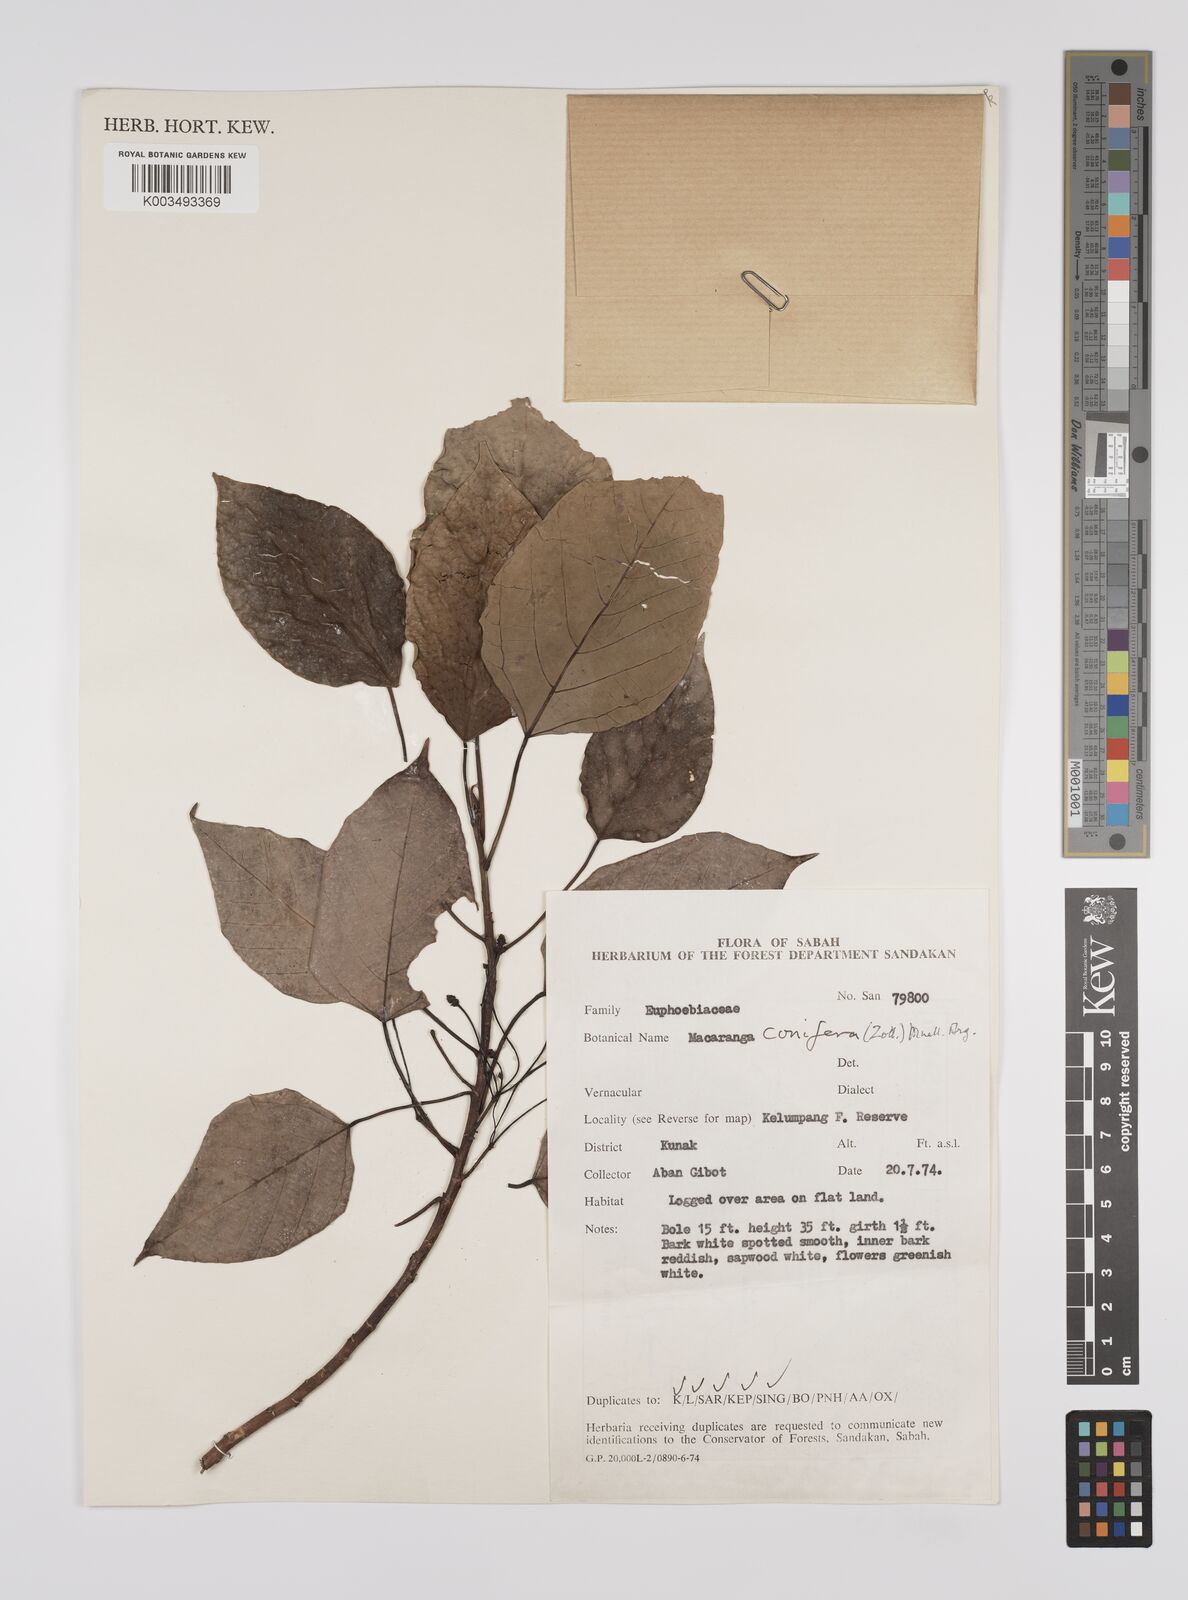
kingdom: Plantae
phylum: Tracheophyta
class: Magnoliopsida
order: Malpighiales
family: Euphorbiaceae
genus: Macaranga
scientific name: Macaranga conifera
